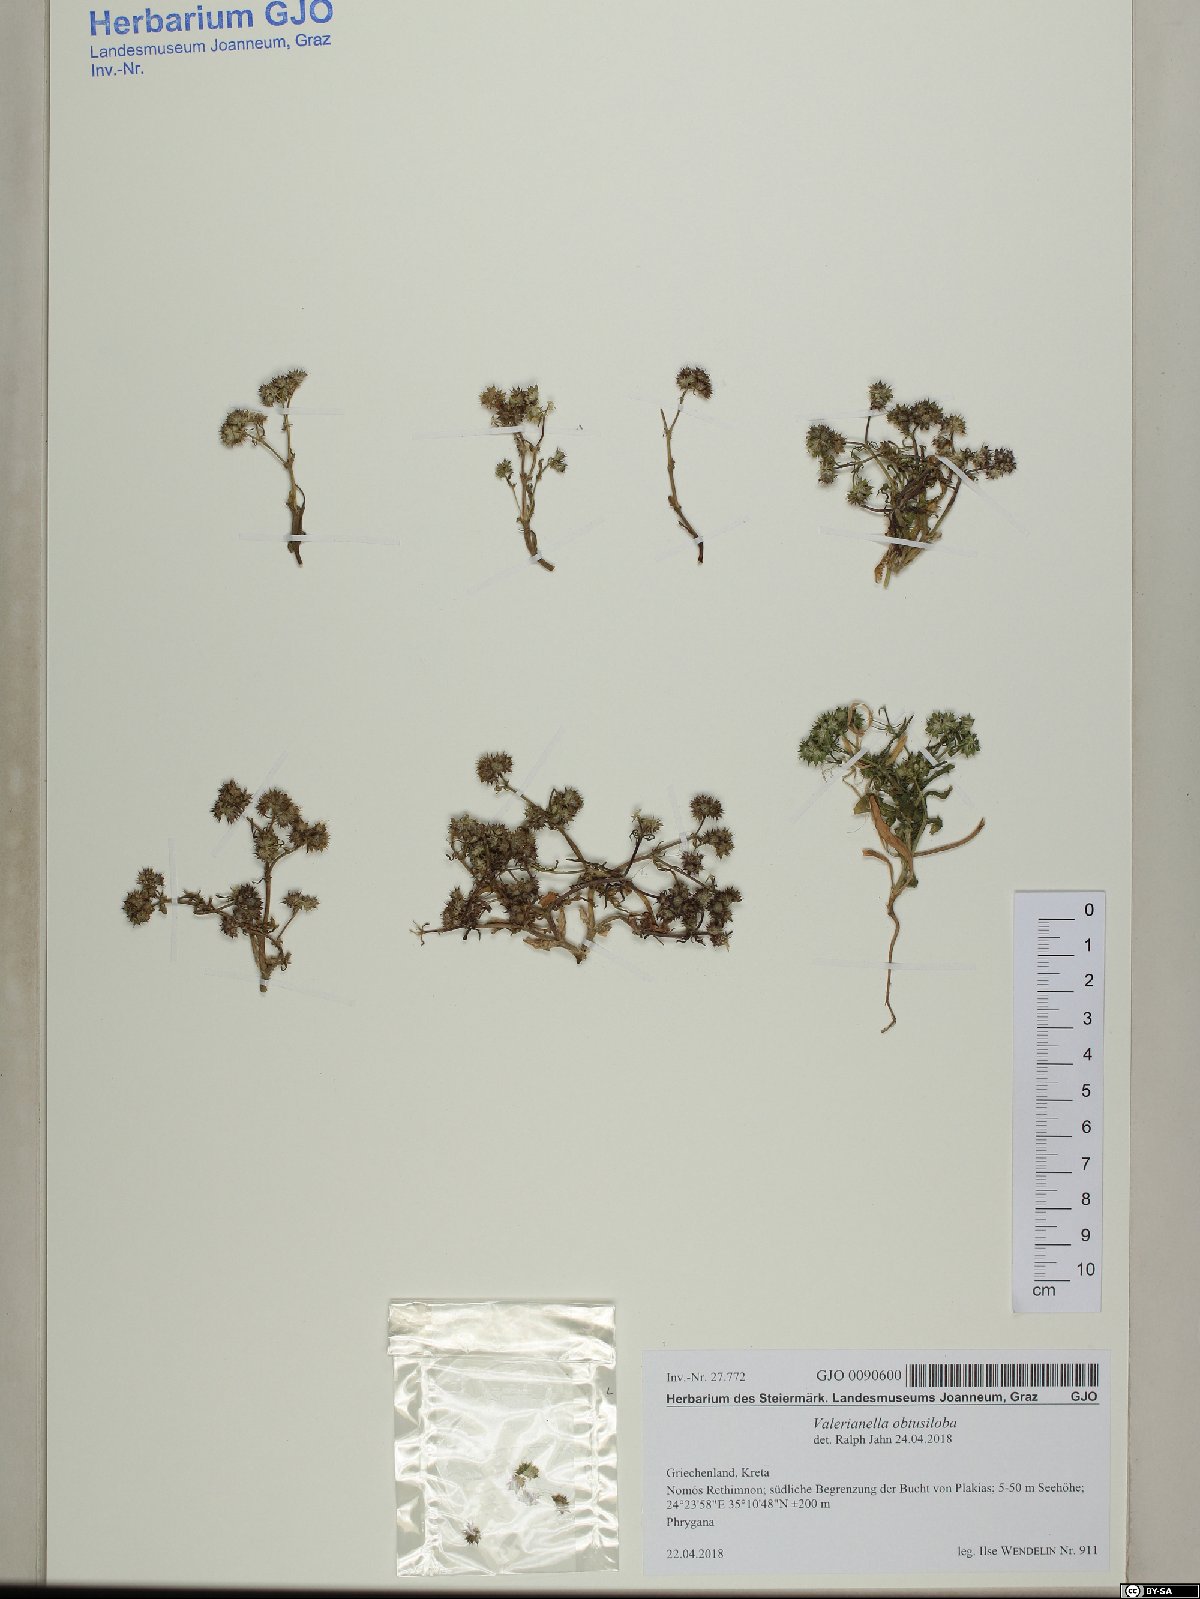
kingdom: Plantae
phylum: Tracheophyta
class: Magnoliopsida
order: Dipsacales
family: Caprifoliaceae
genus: Valerianella
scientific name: Valerianella obtusiloba
